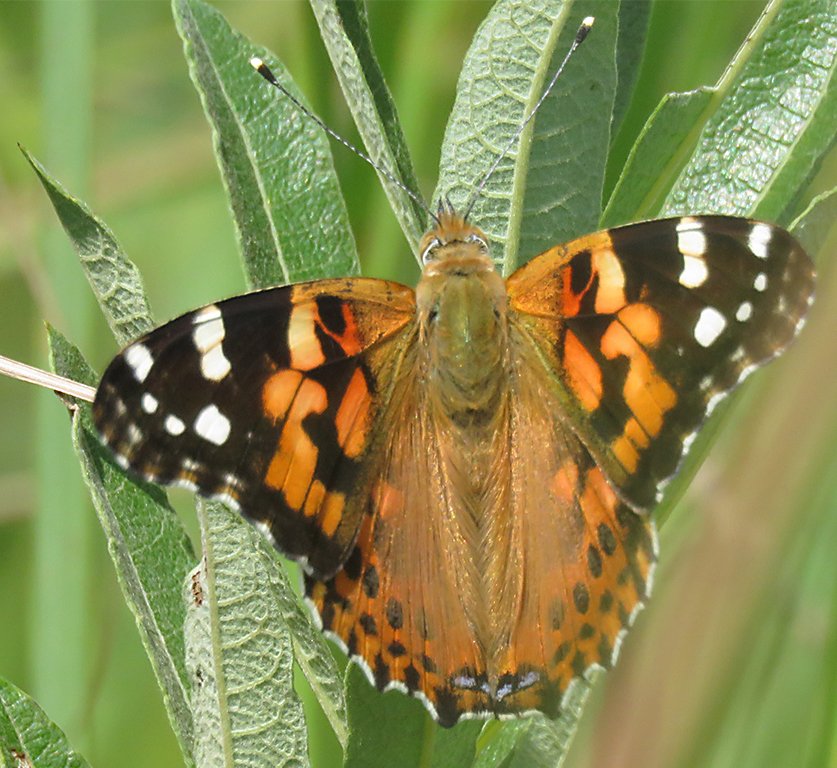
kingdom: Animalia
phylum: Arthropoda
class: Insecta
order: Lepidoptera
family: Nymphalidae
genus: Vanessa
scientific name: Vanessa cardui
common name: Painted Lady
